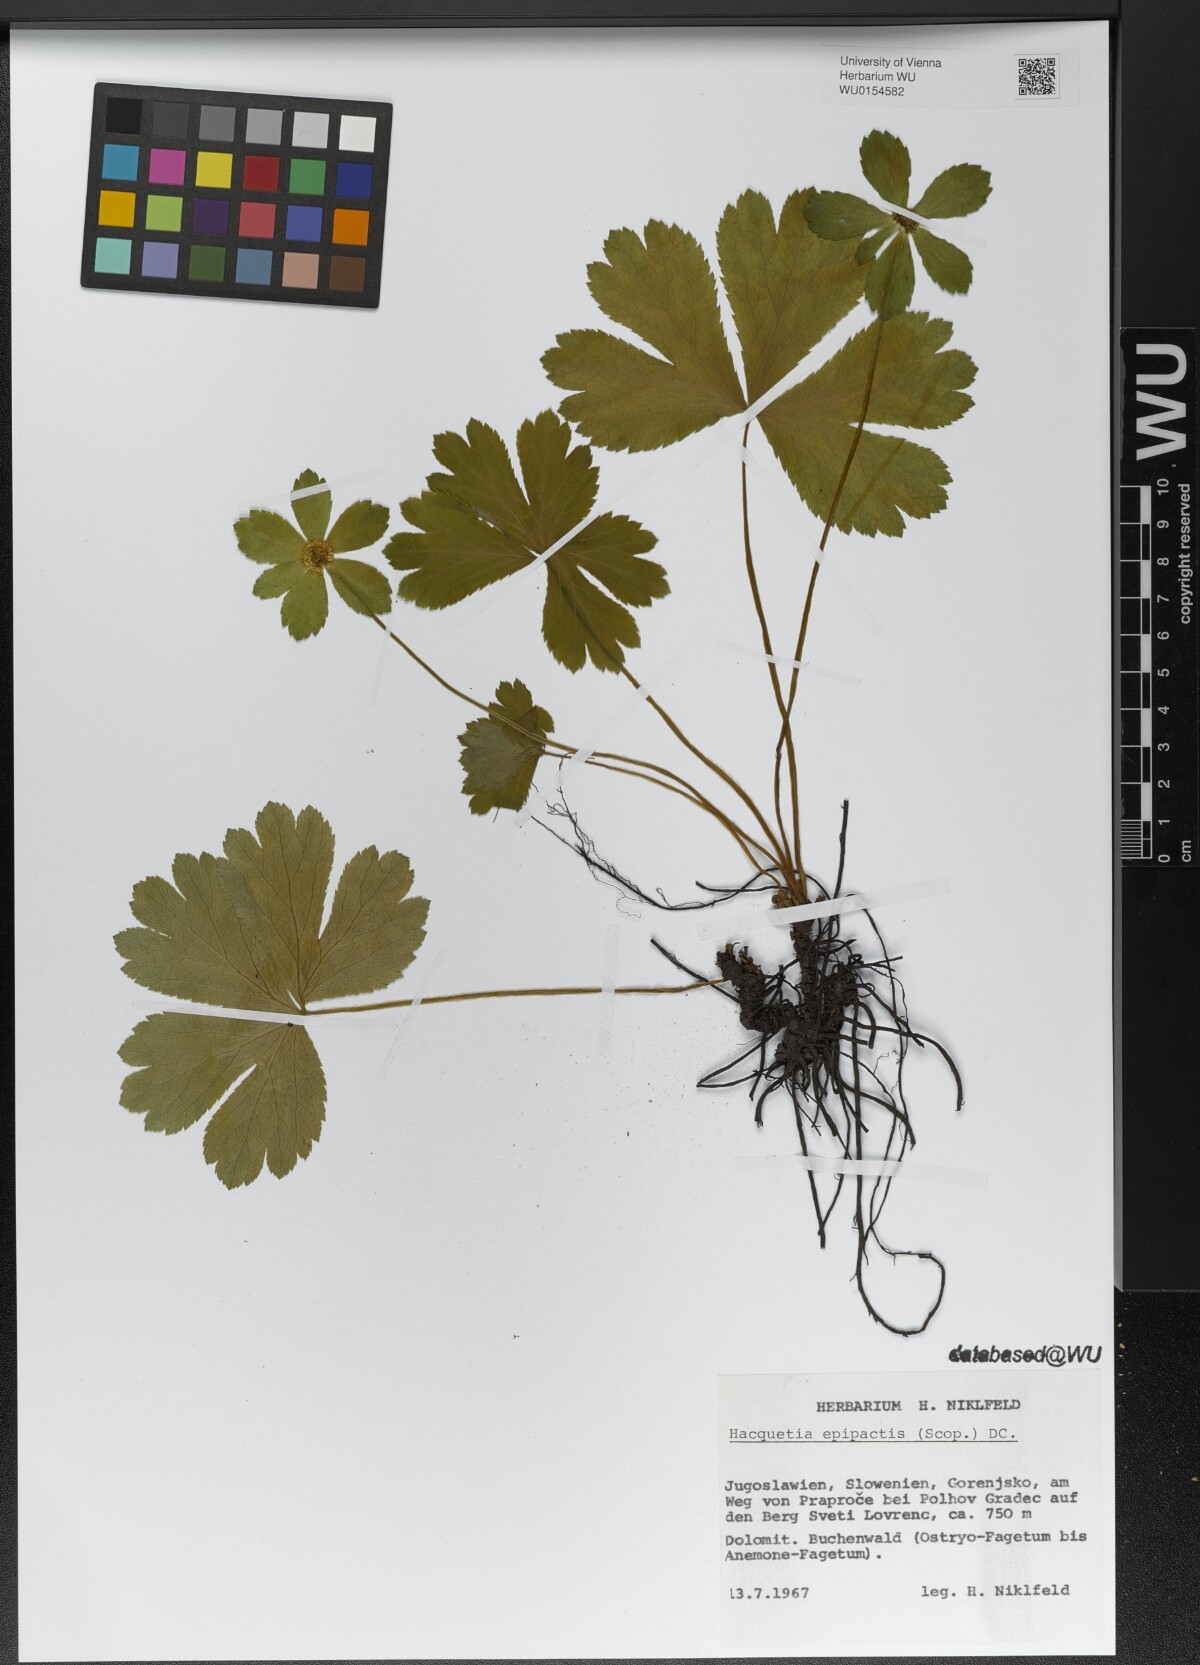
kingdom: Plantae
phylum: Tracheophyta
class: Magnoliopsida
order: Apiales
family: Apiaceae
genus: Sanicula
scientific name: Sanicula epipactis
